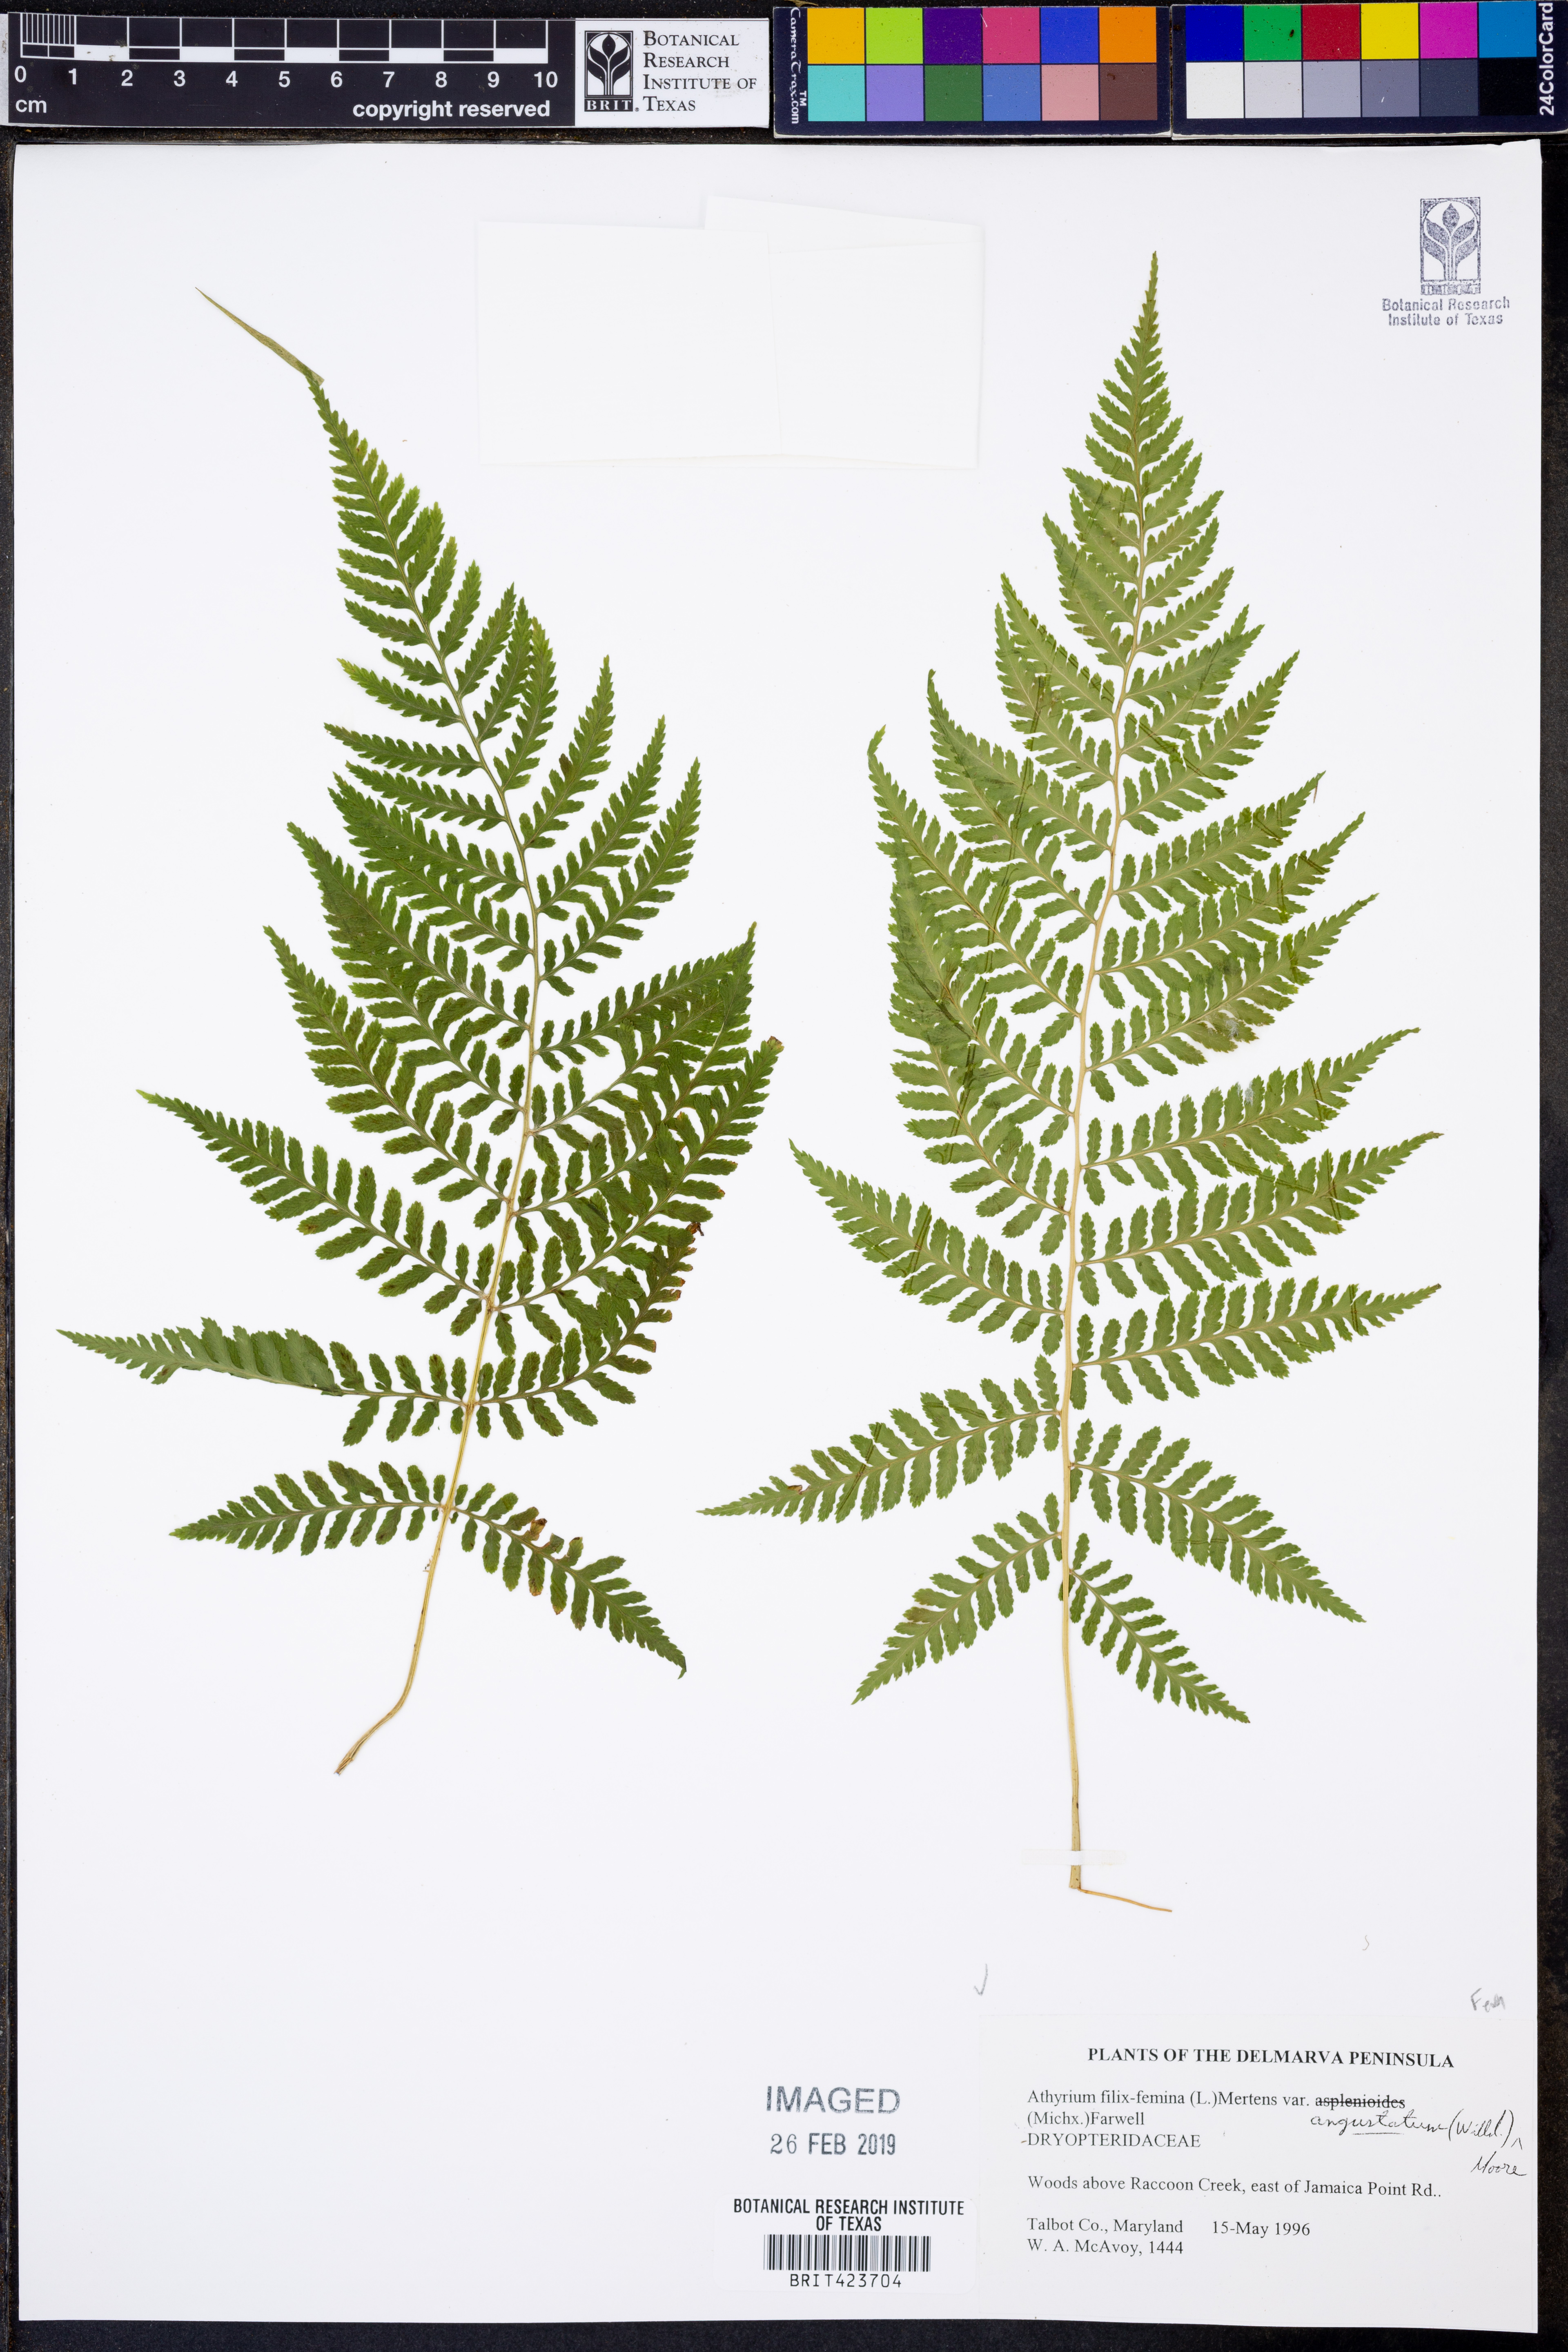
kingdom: Plantae
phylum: Tracheophyta
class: Polypodiopsida
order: Polypodiales
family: Athyriaceae
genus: Athyrium
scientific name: Athyrium angustum
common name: Northern lady fern
